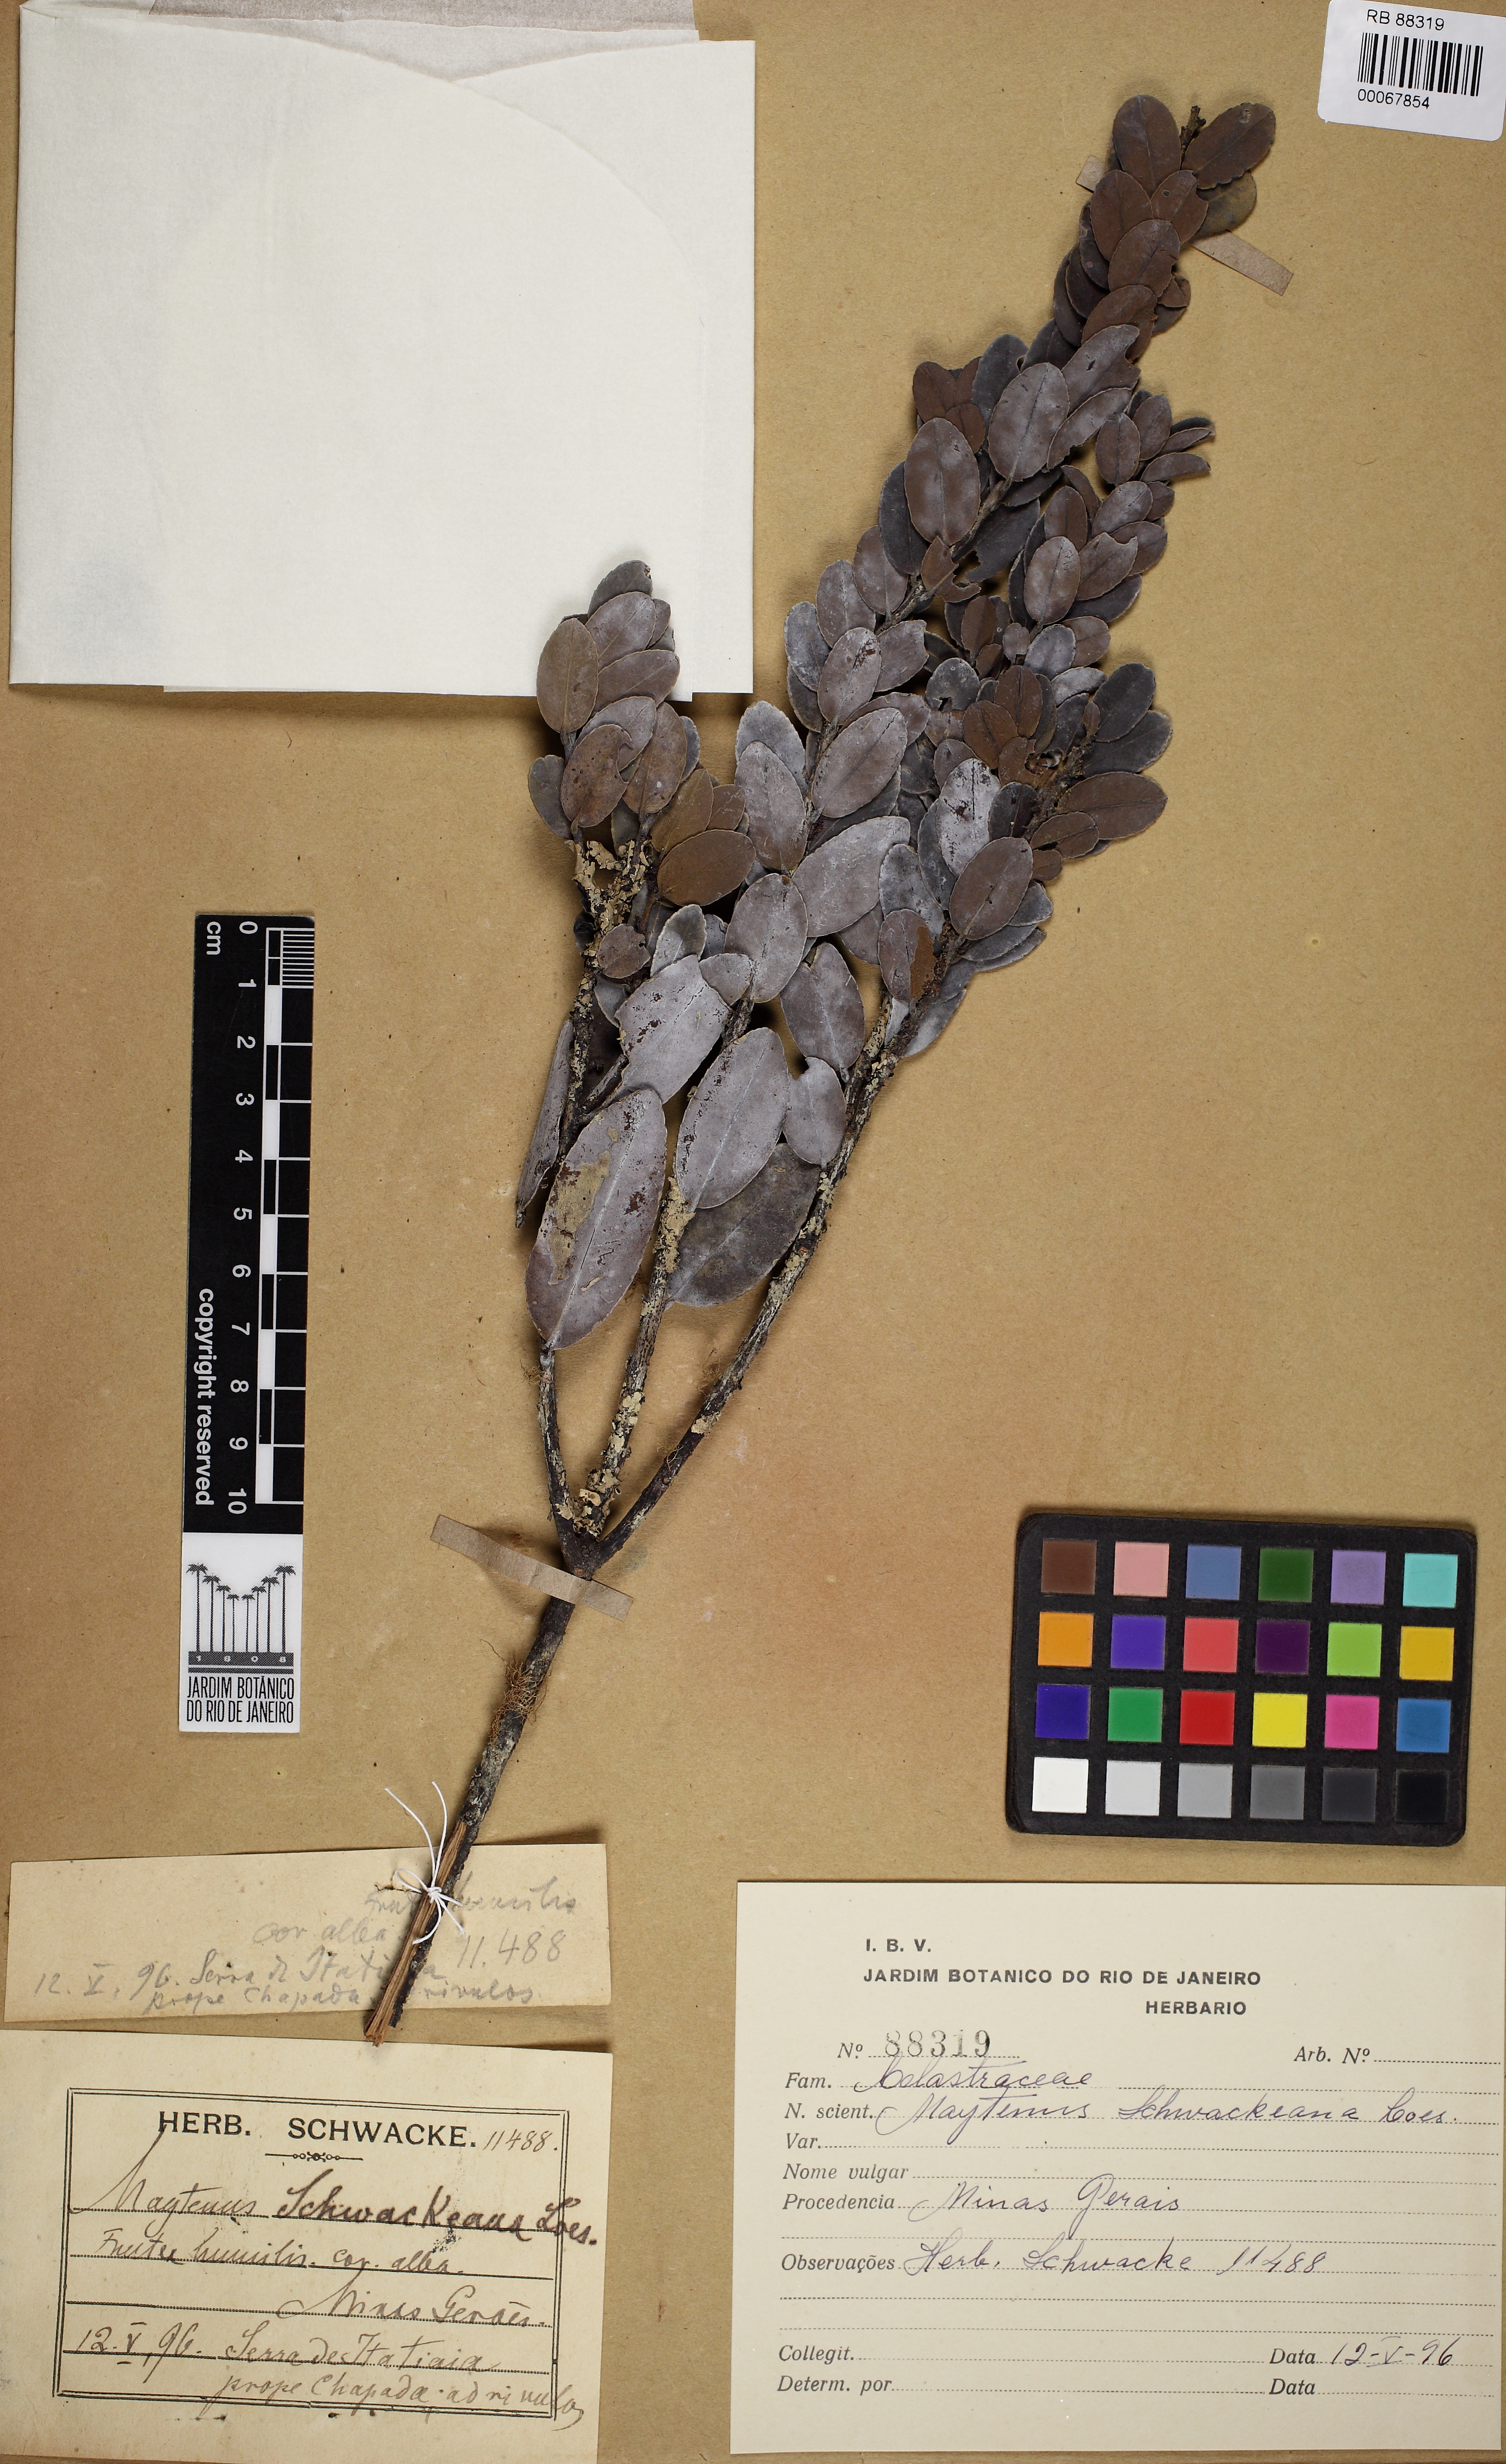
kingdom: Plantae
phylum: Tracheophyta
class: Magnoliopsida
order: Celastrales
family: Celastraceae
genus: Monteverdia
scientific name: Monteverdia urbaniana
